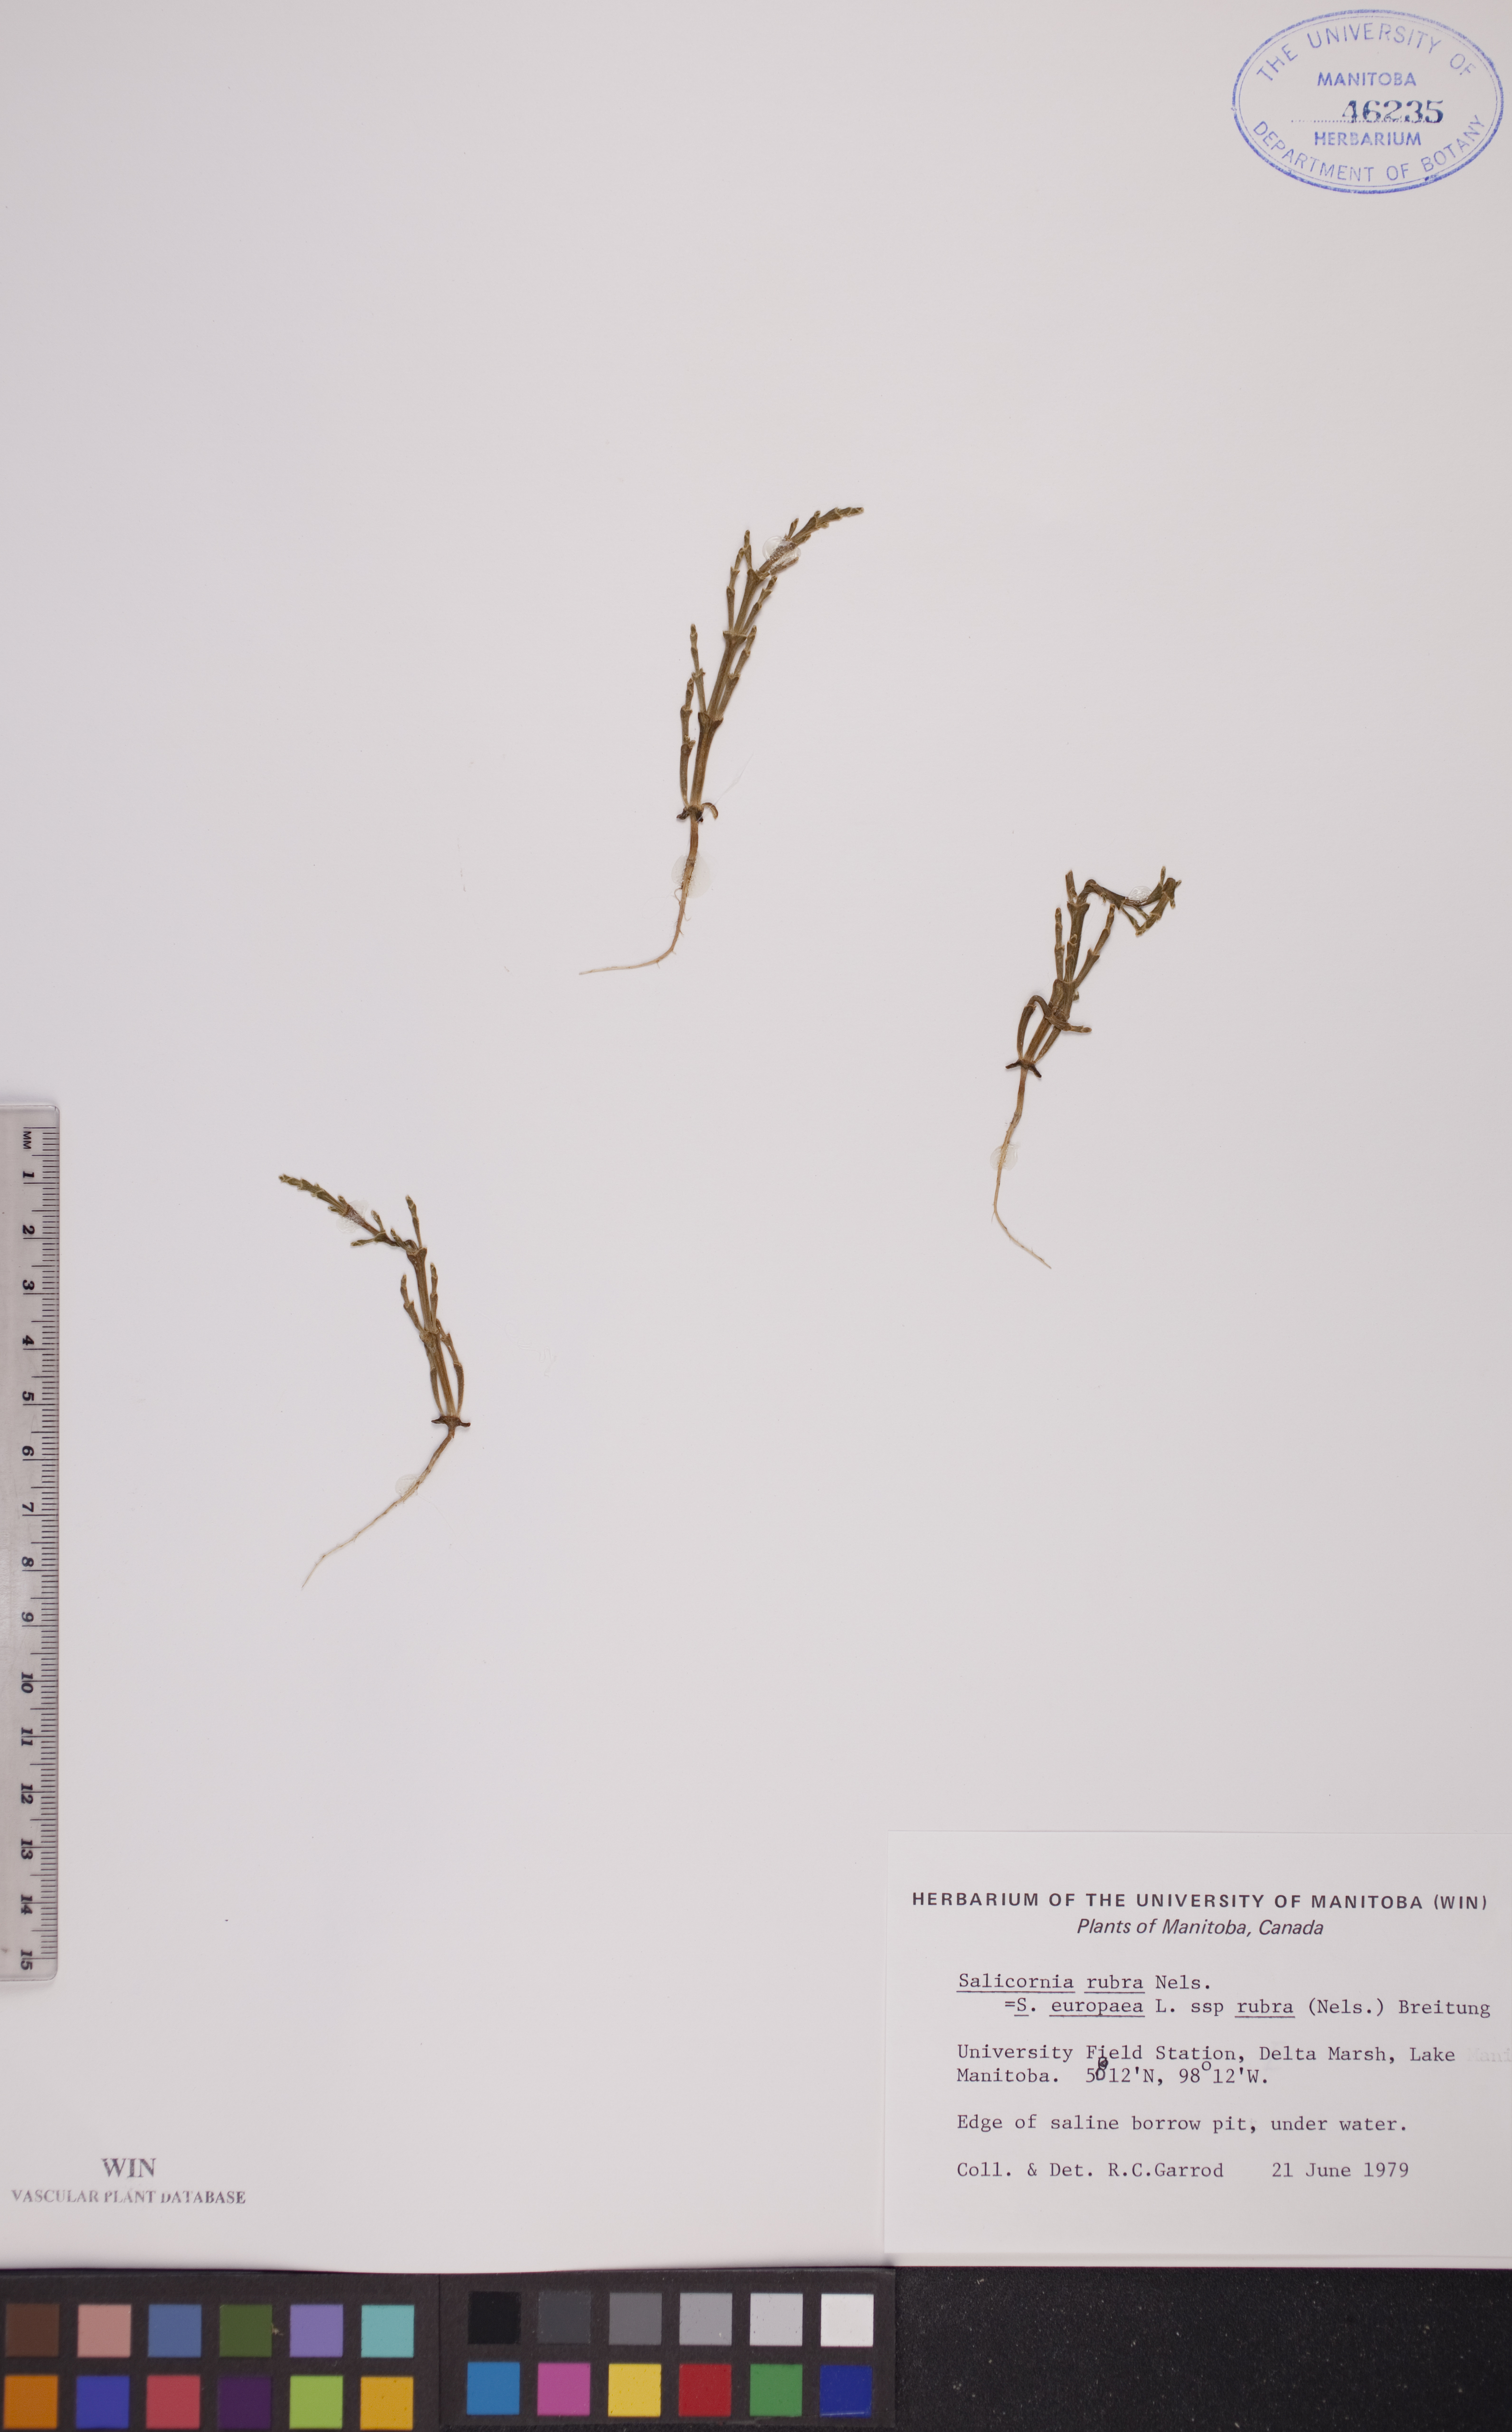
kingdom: Plantae
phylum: Tracheophyta
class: Magnoliopsida
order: Caryophyllales
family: Amaranthaceae
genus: Salicornia
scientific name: Salicornia rubra
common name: Red glasswort
